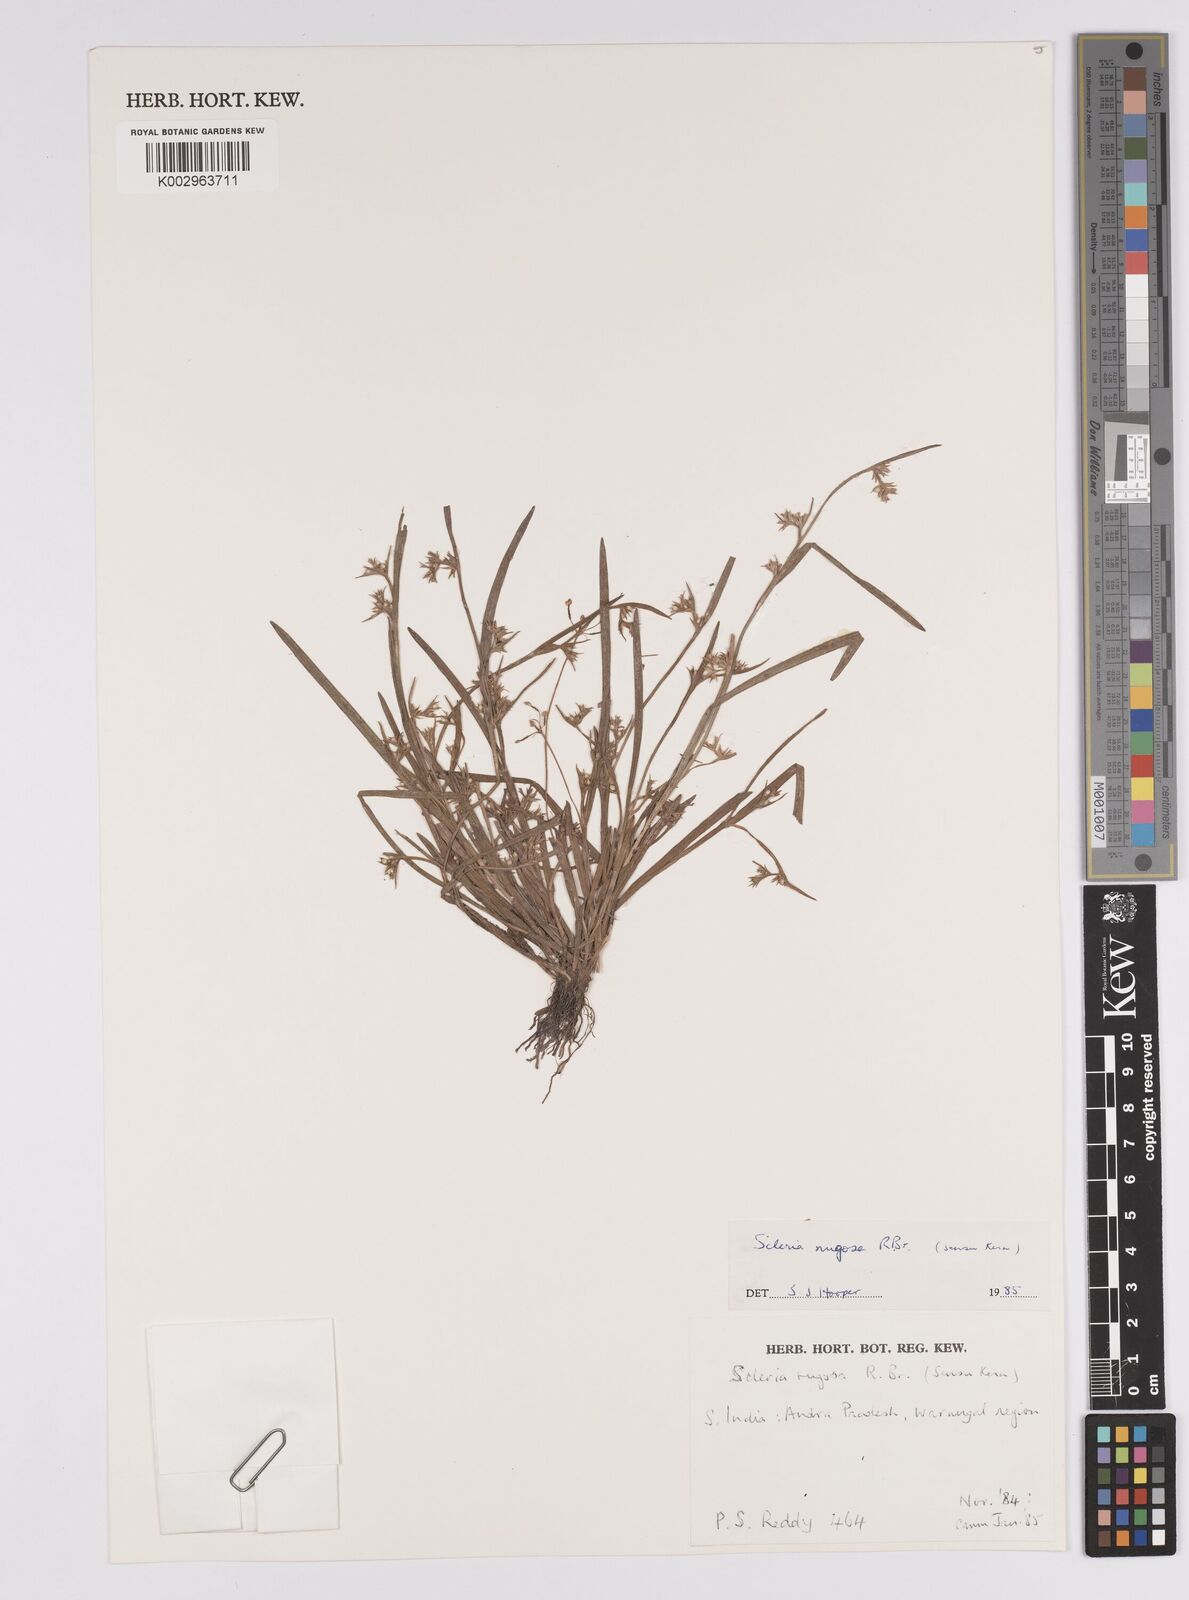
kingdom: Plantae
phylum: Tracheophyta
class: Liliopsida
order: Poales
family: Cyperaceae
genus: Scleria
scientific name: Scleria rugosa
